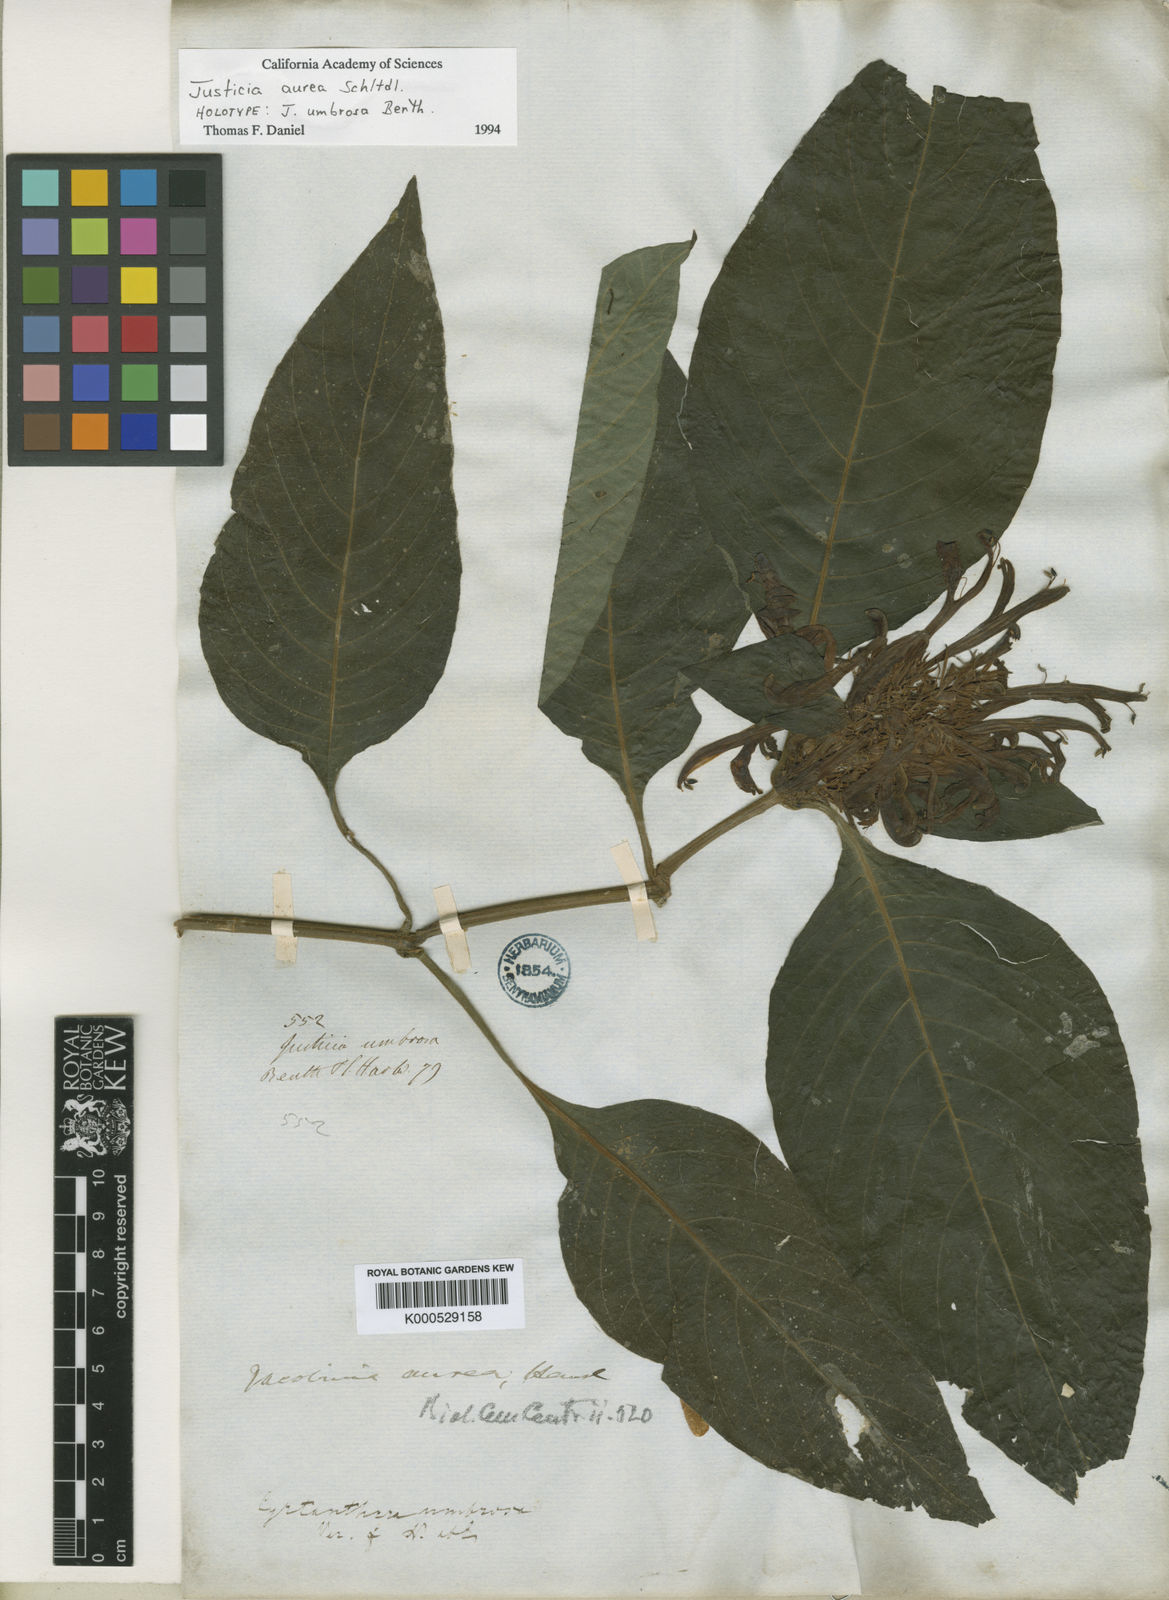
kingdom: Plantae
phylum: Tracheophyta
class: Magnoliopsida
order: Lamiales
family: Acanthaceae
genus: Justicia
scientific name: Justicia aurea
